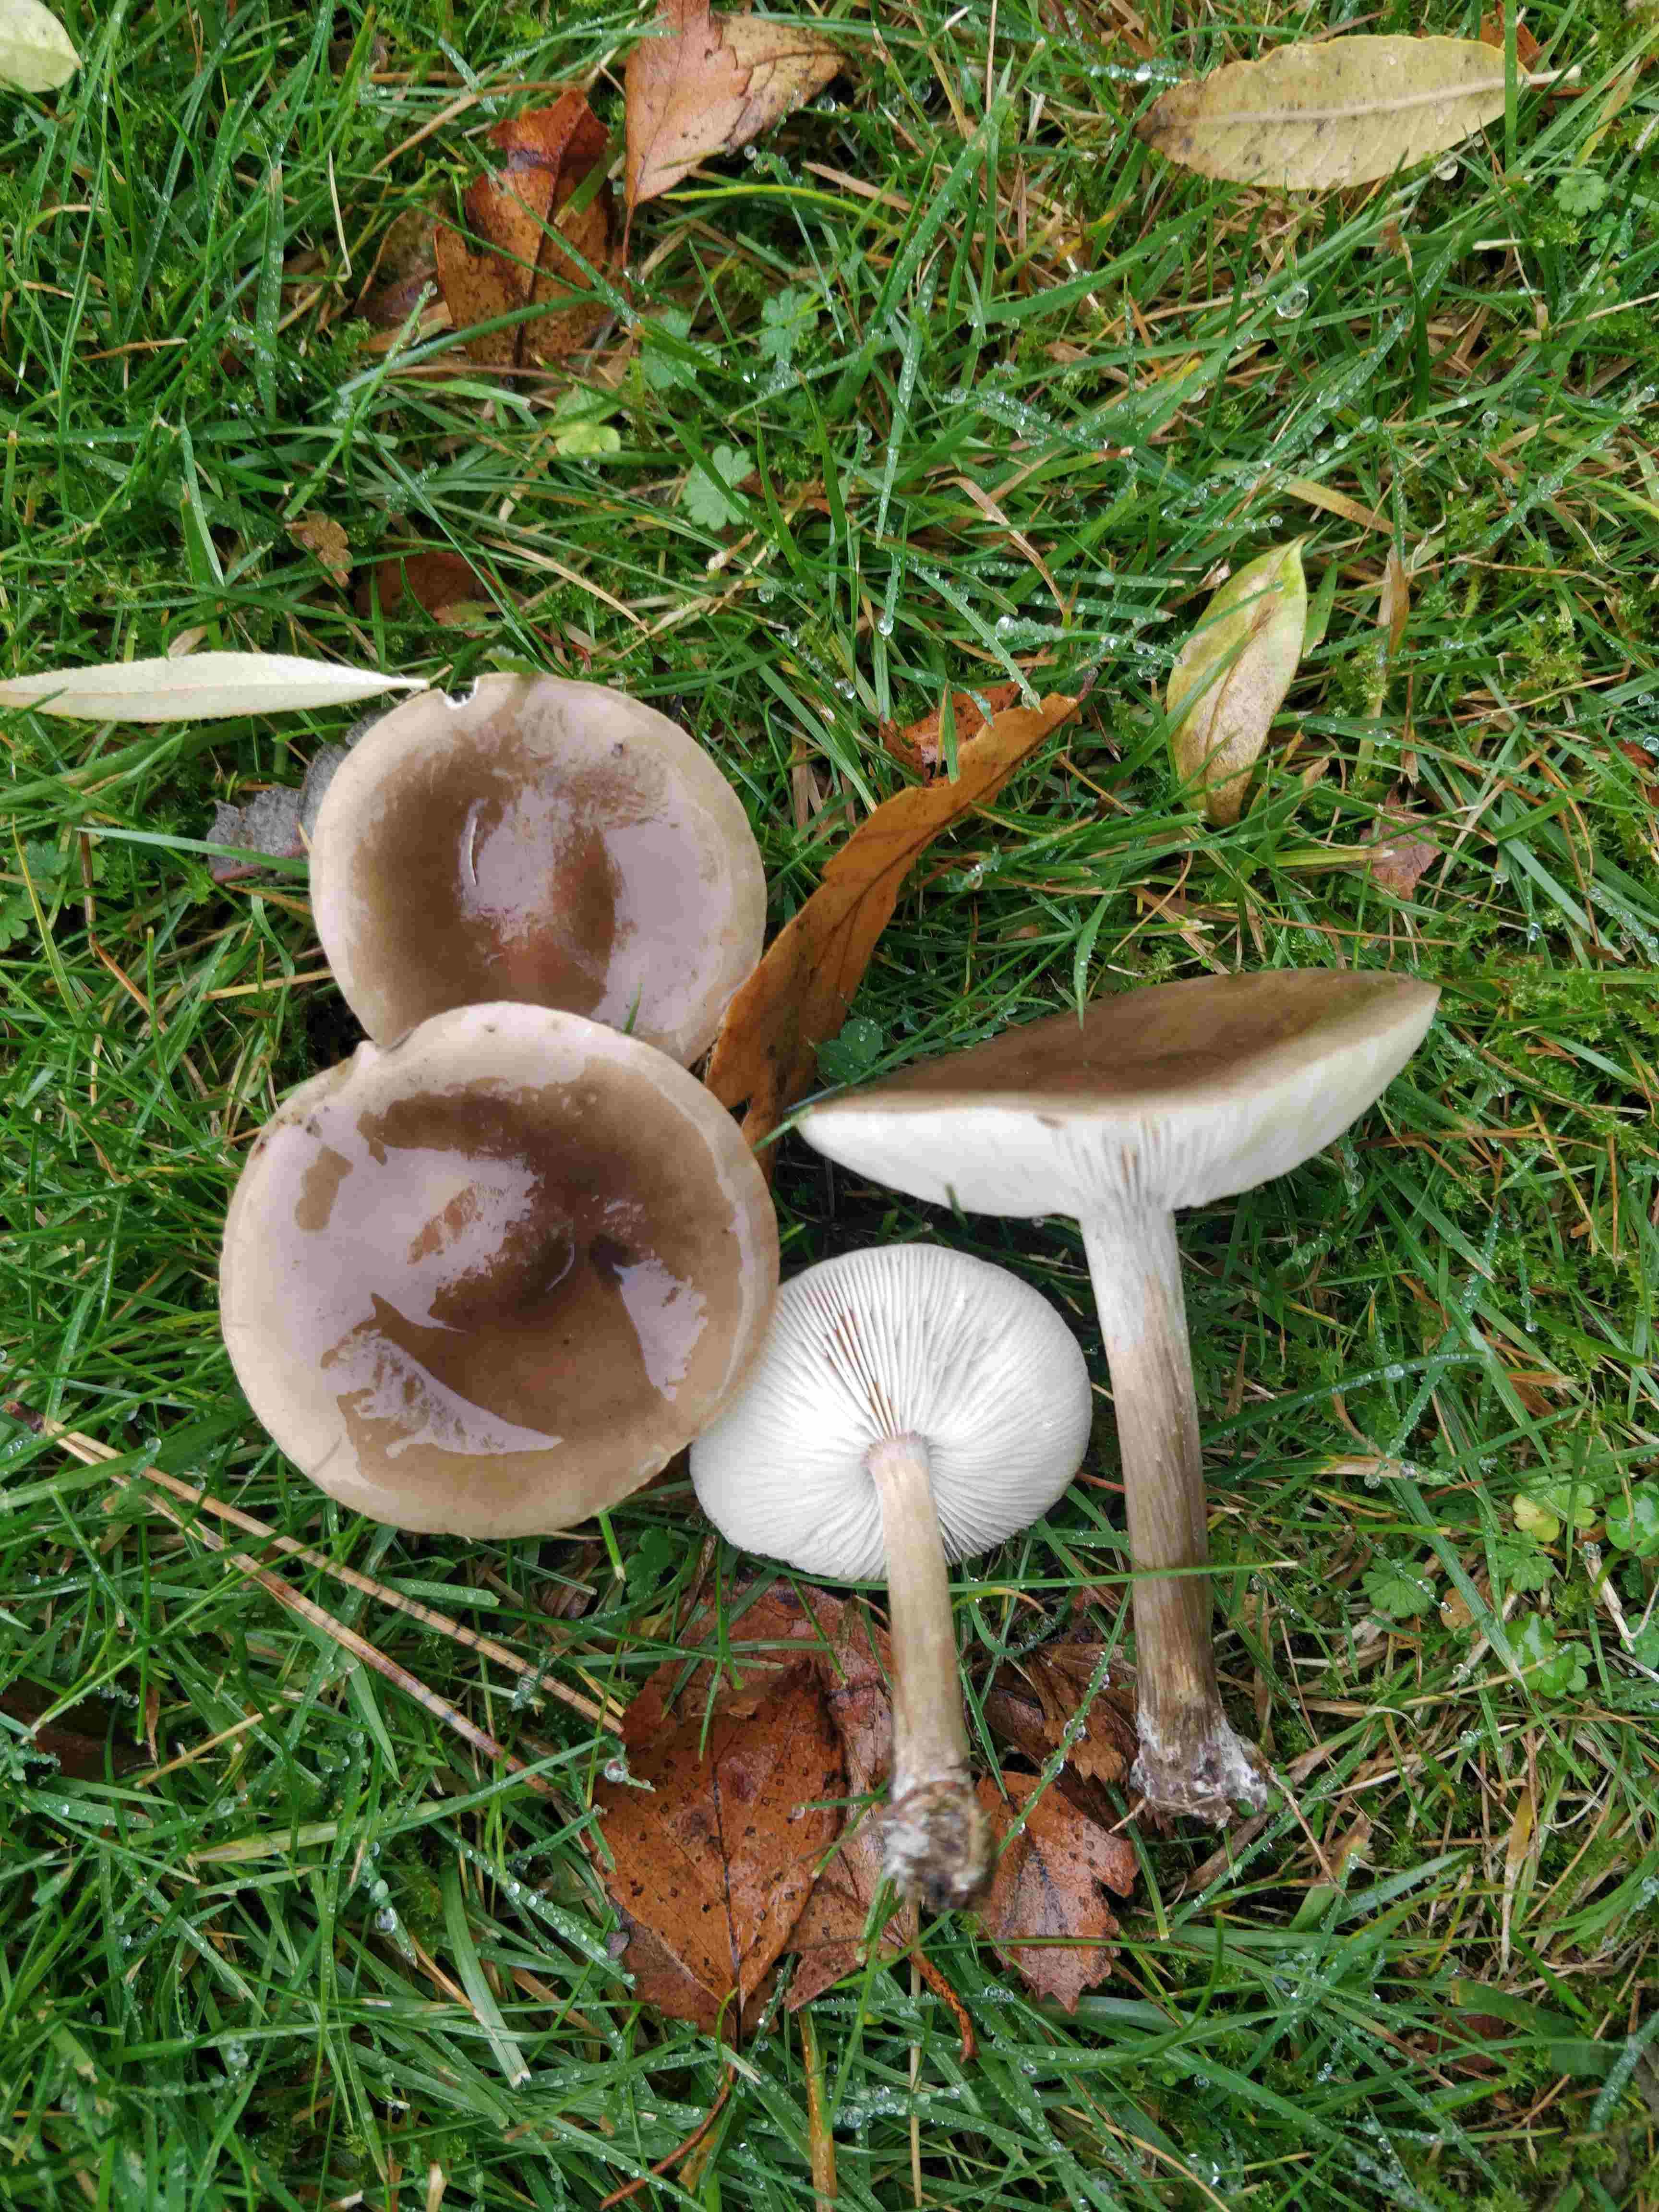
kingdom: Fungi
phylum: Basidiomycota
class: Agaricomycetes
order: Agaricales
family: Tricholomataceae
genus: Melanoleuca
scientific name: Melanoleuca
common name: munkehat
